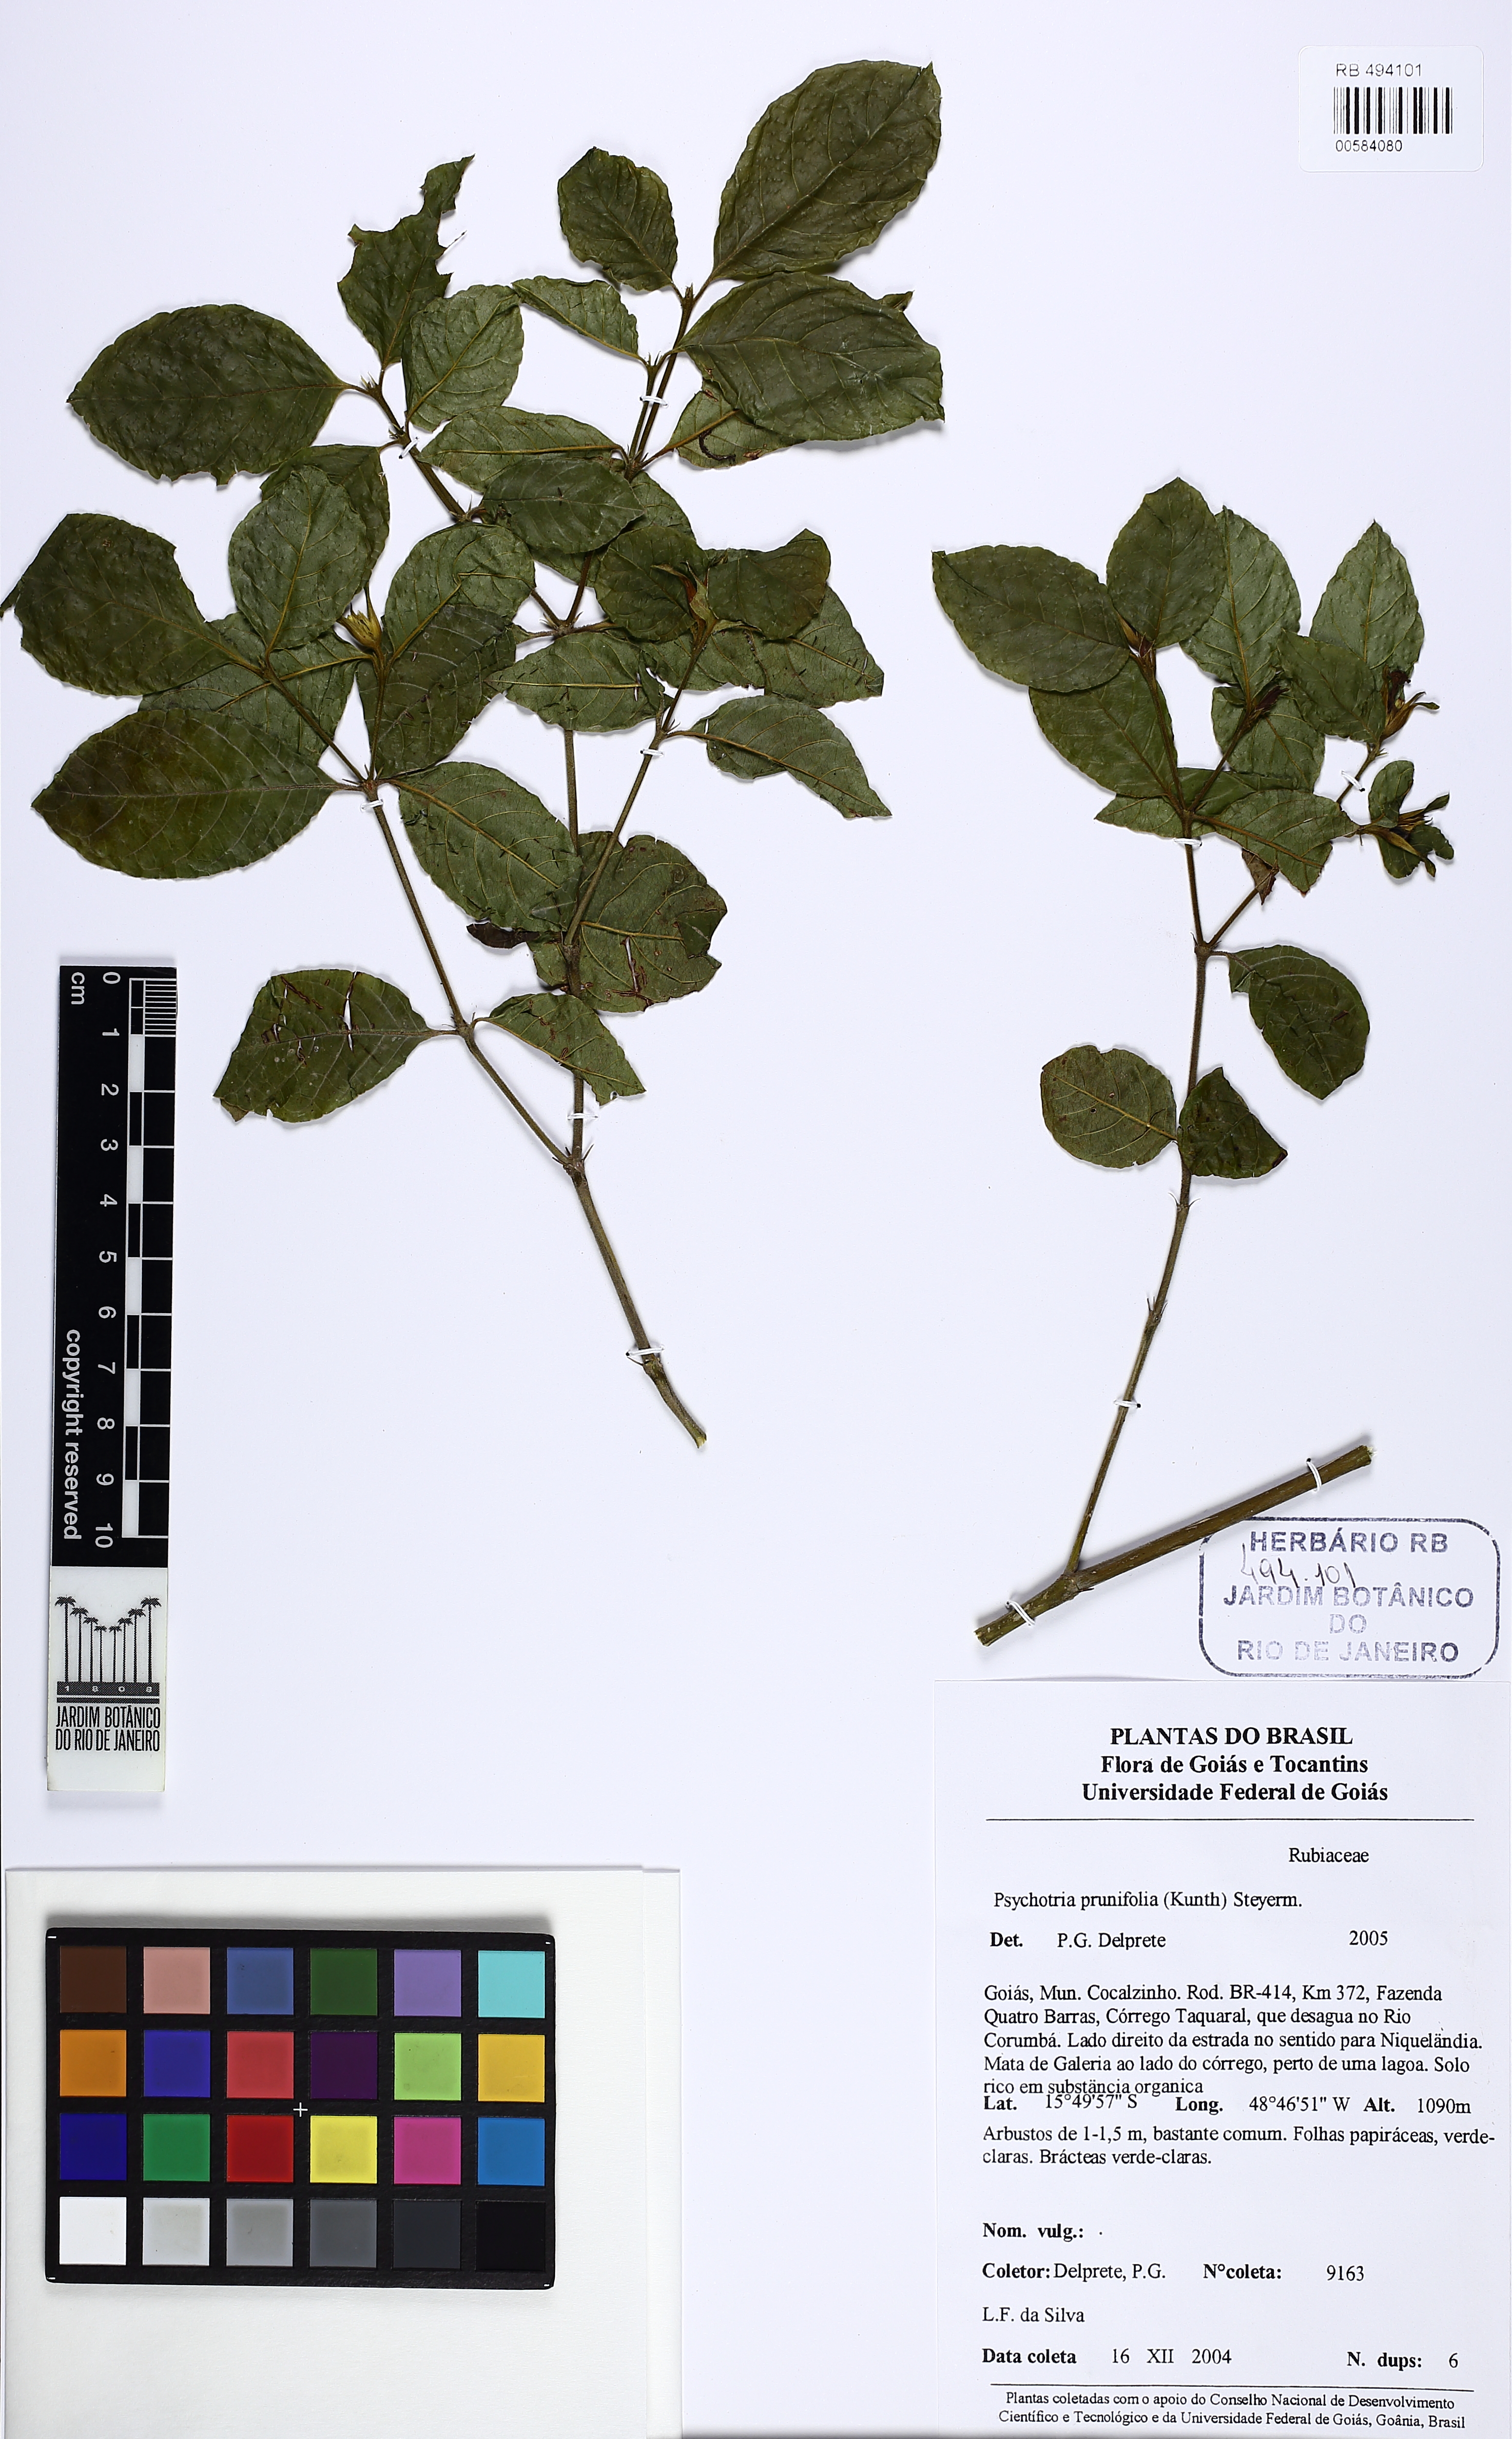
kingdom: Plantae
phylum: Tracheophyta
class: Magnoliopsida
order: Gentianales
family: Rubiaceae
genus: Palicourea
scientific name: Palicourea prunifolia
